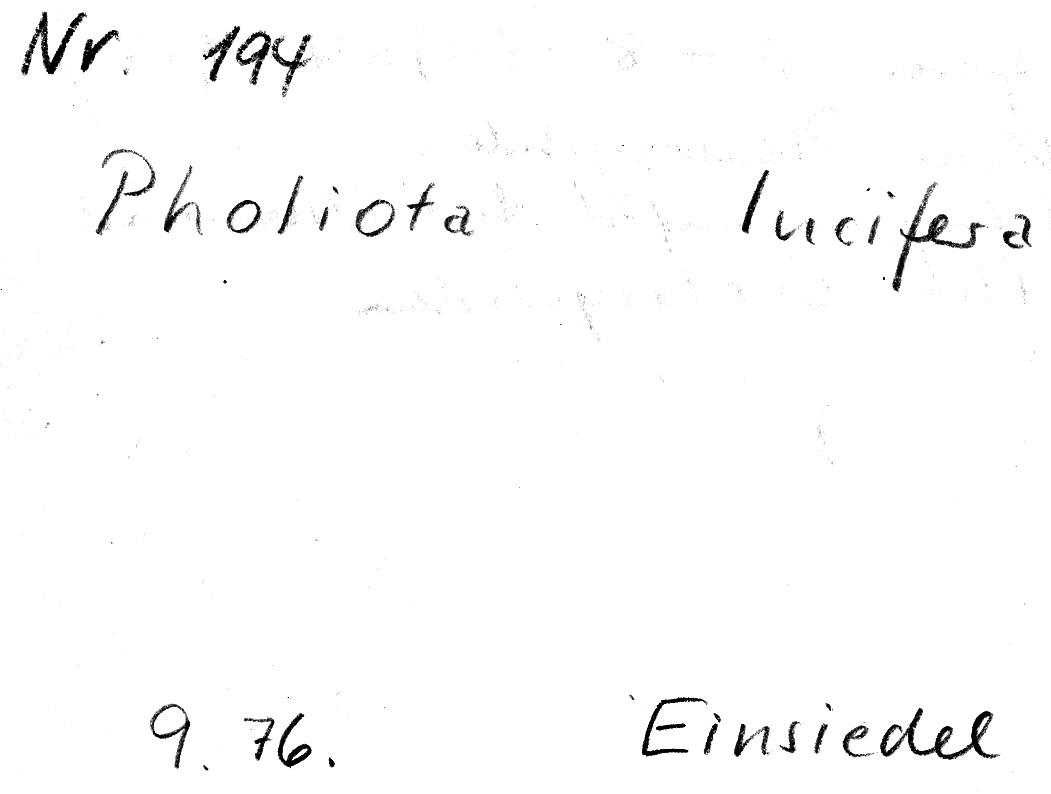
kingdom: Fungi
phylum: Basidiomycota
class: Agaricomycetes
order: Agaricales
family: Strophariaceae
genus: Pholiota
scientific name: Pholiota lucifera
